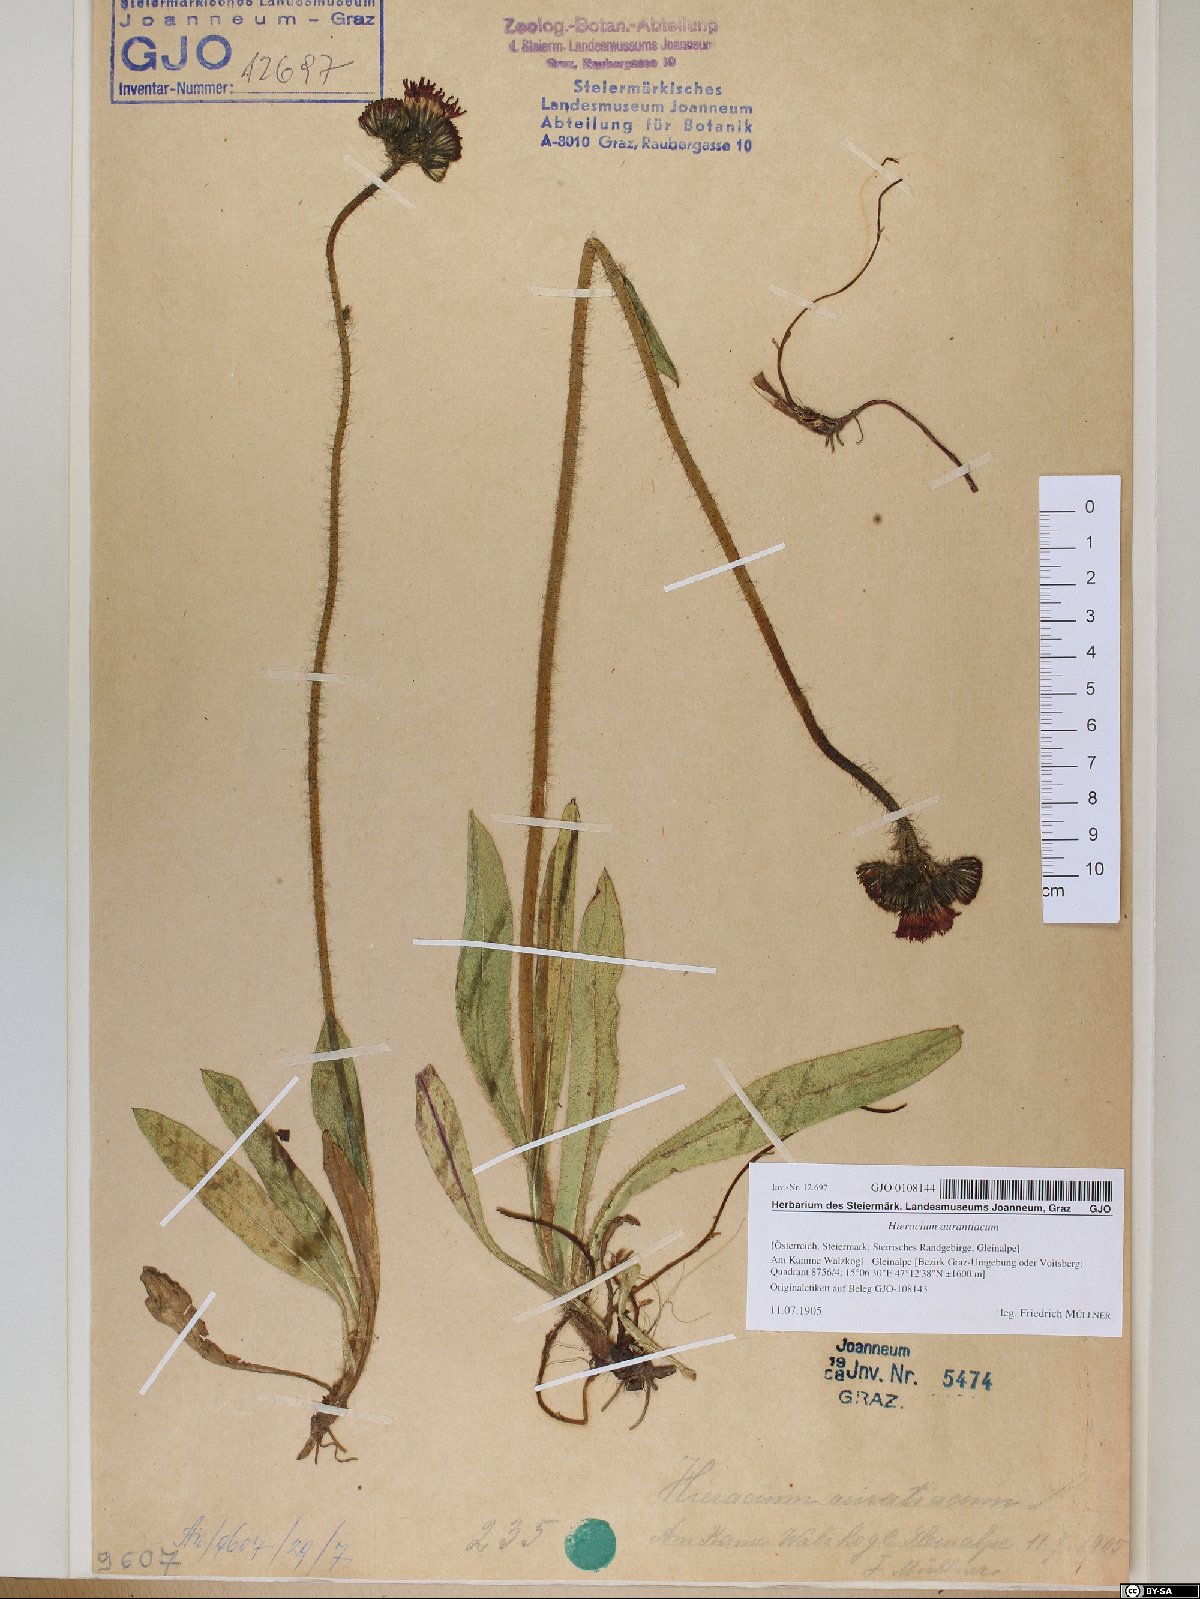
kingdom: Plantae
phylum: Tracheophyta
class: Magnoliopsida
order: Asterales
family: Asteraceae
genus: Pilosella
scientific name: Pilosella aurantiaca
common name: Fox-and-cubs
